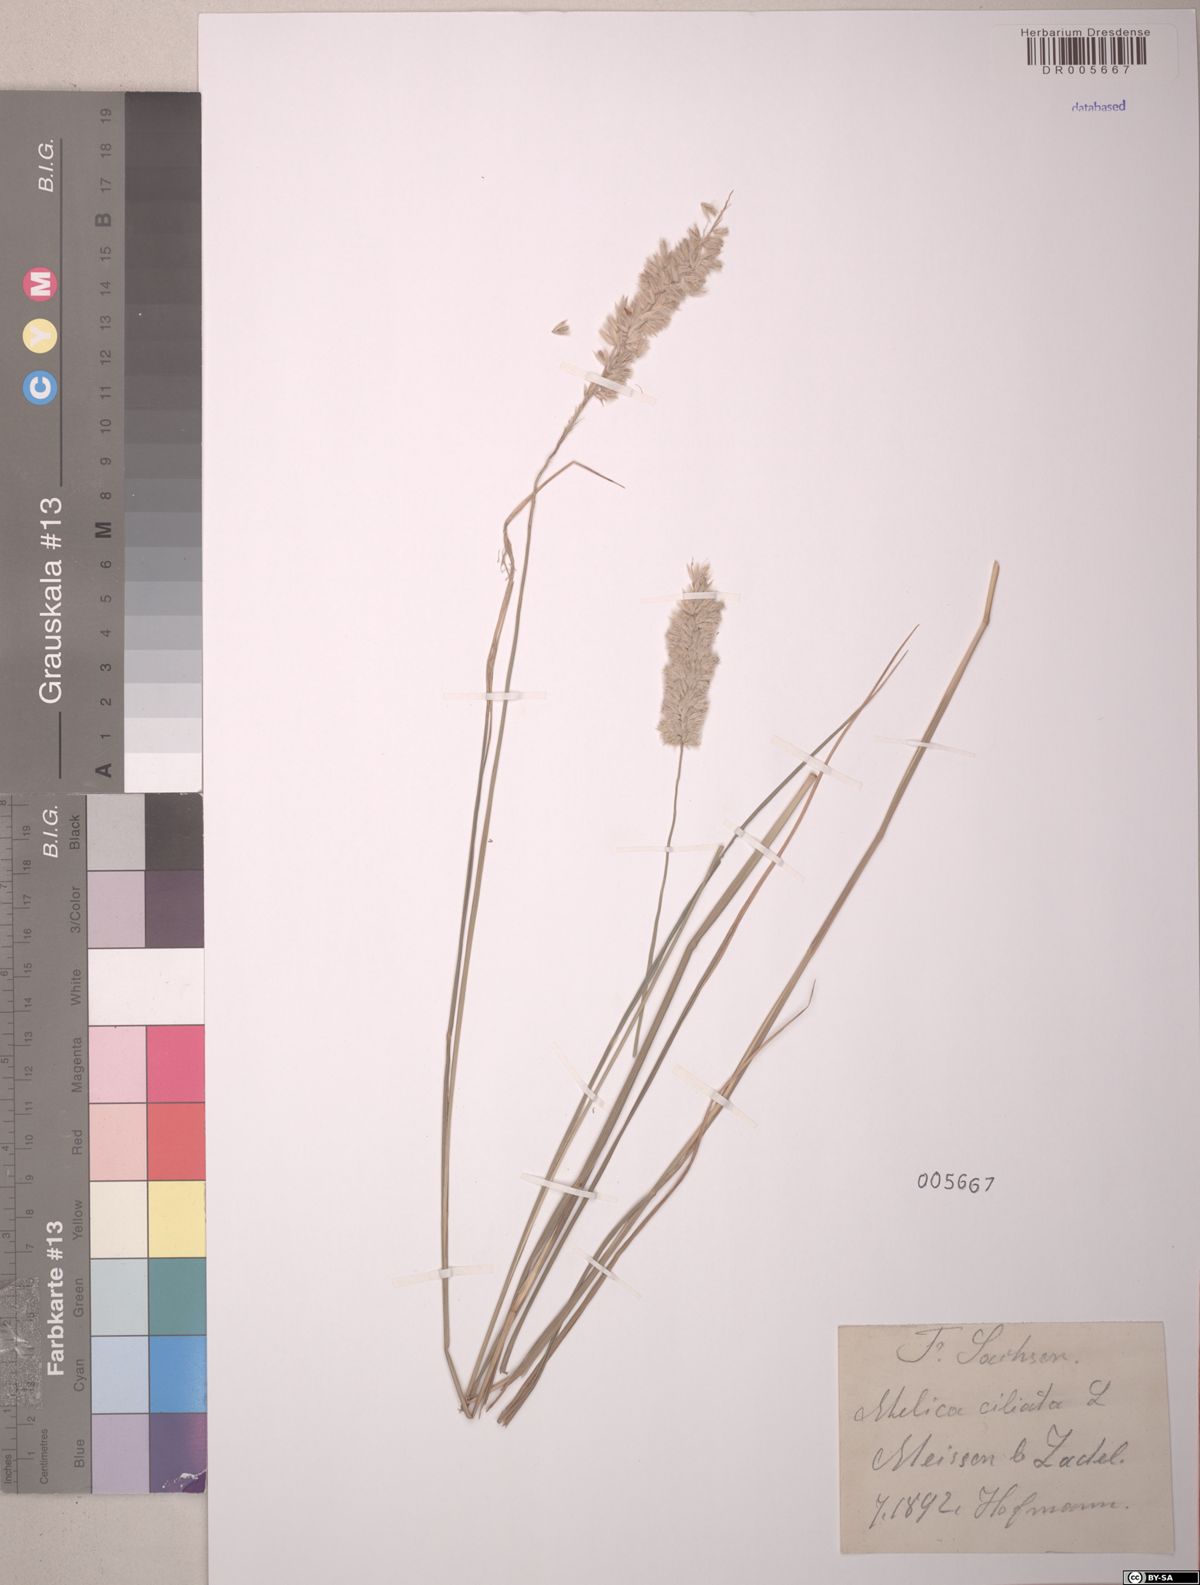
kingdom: Plantae
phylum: Tracheophyta
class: Liliopsida
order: Poales
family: Poaceae
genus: Melica
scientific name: Melica ciliata
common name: Hairy melicgrass
